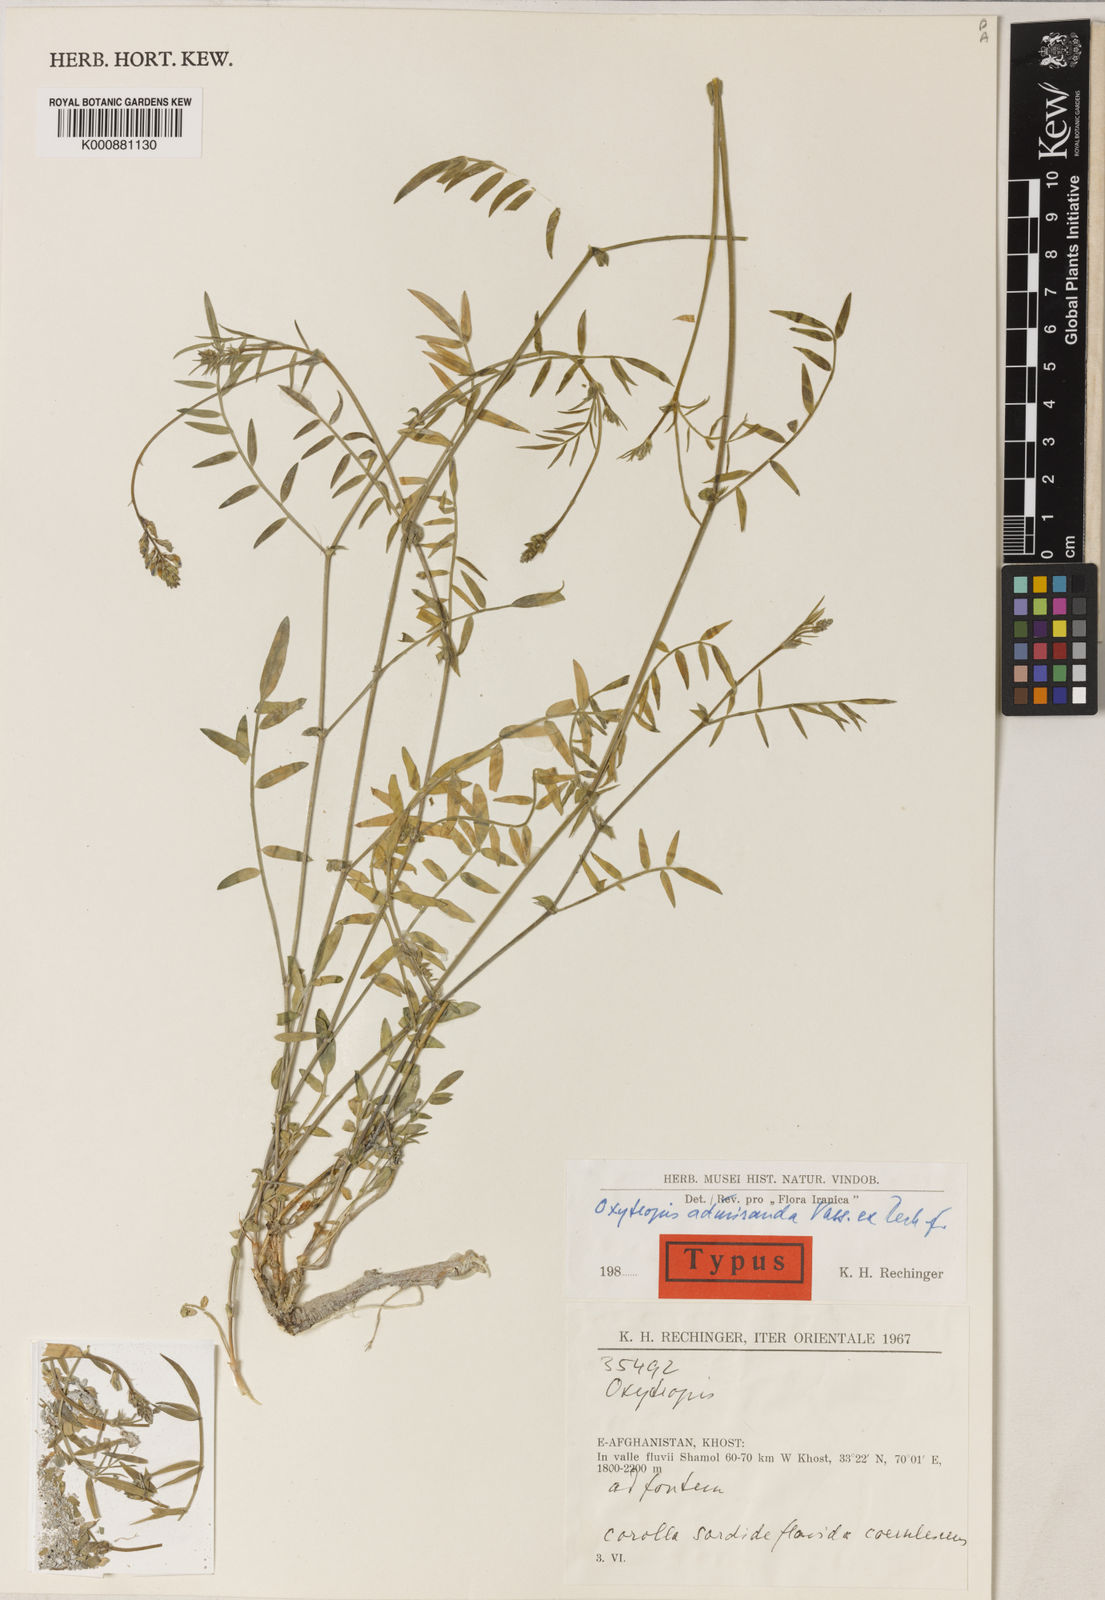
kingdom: Plantae
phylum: Tracheophyta
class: Magnoliopsida
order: Fabales
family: Fabaceae
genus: Oxytropis
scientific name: Oxytropis admiranda
